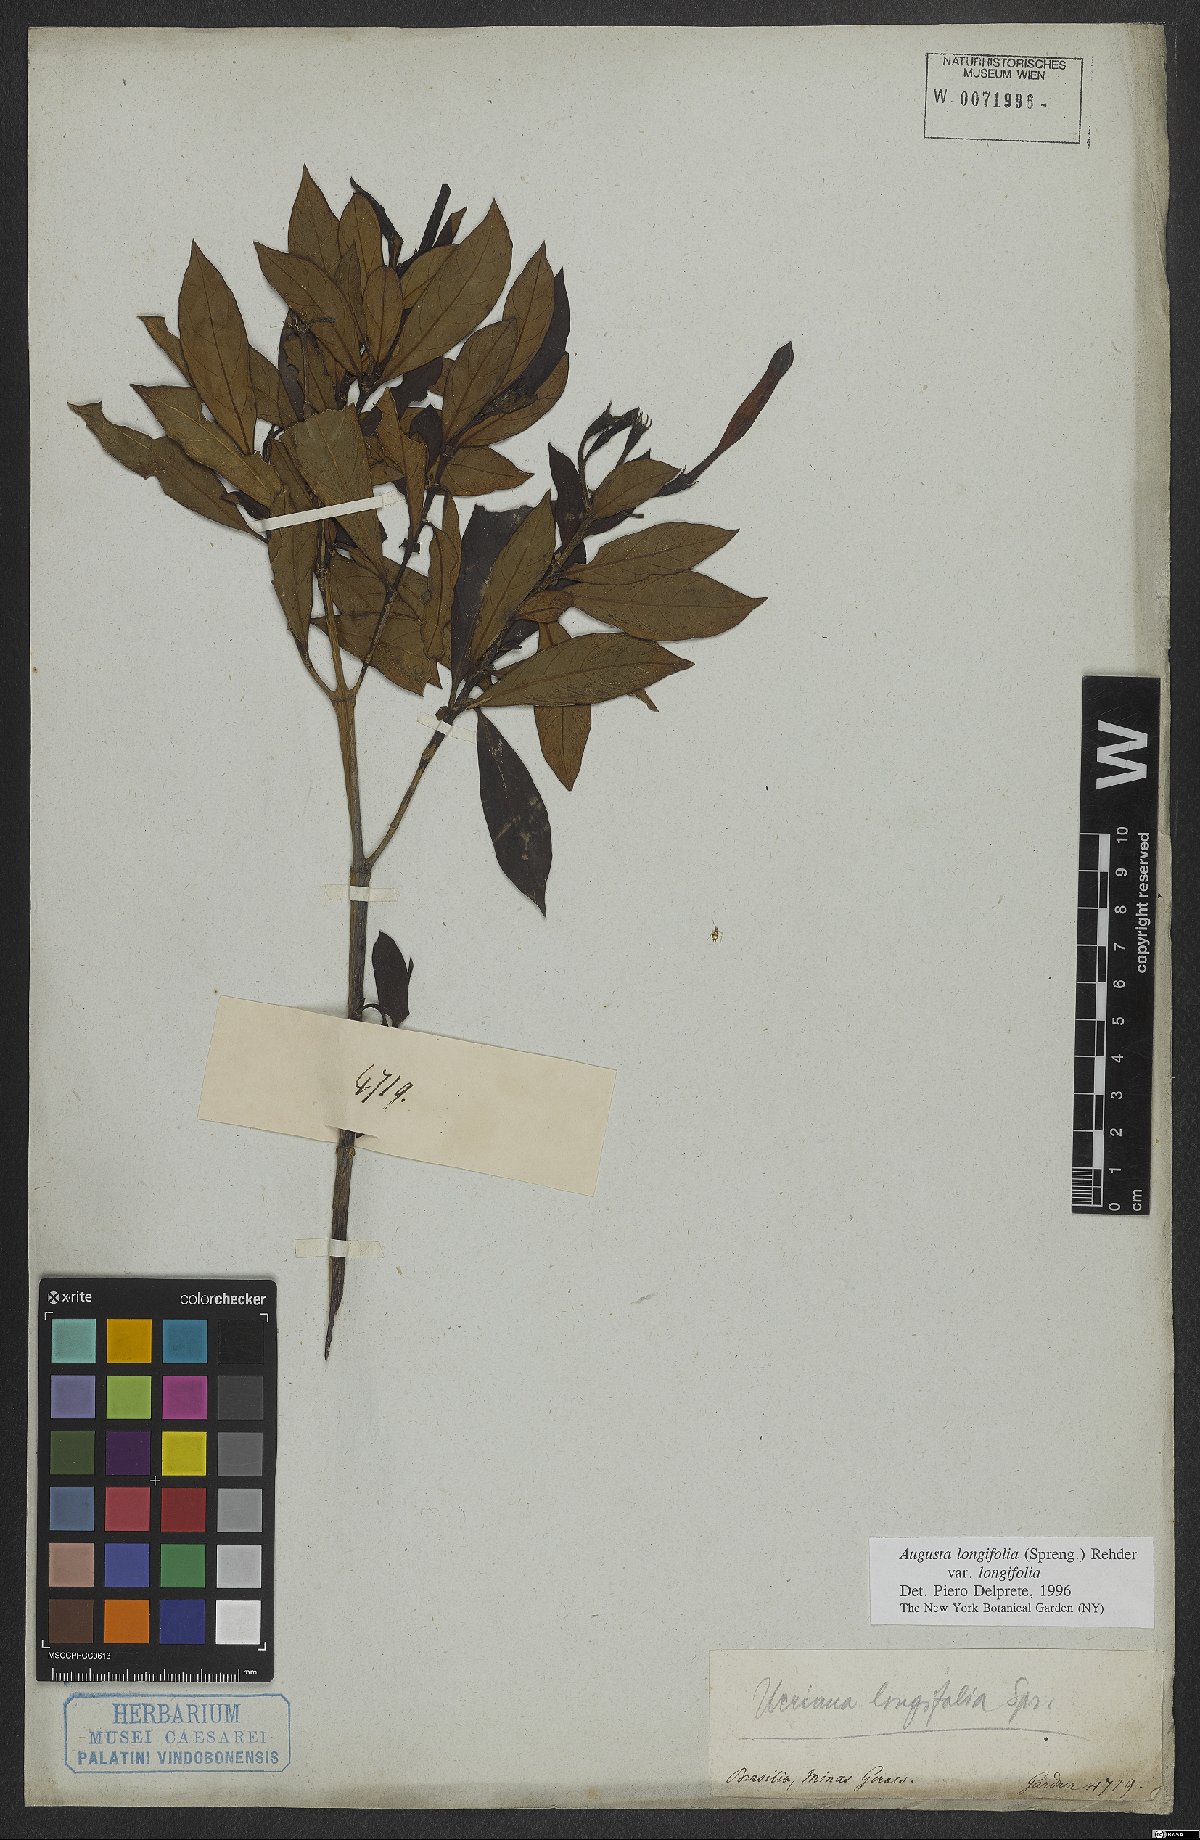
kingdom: Plantae
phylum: Tracheophyta
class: Magnoliopsida
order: Gentianales
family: Rubiaceae
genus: Augusta
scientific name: Augusta longifolia
